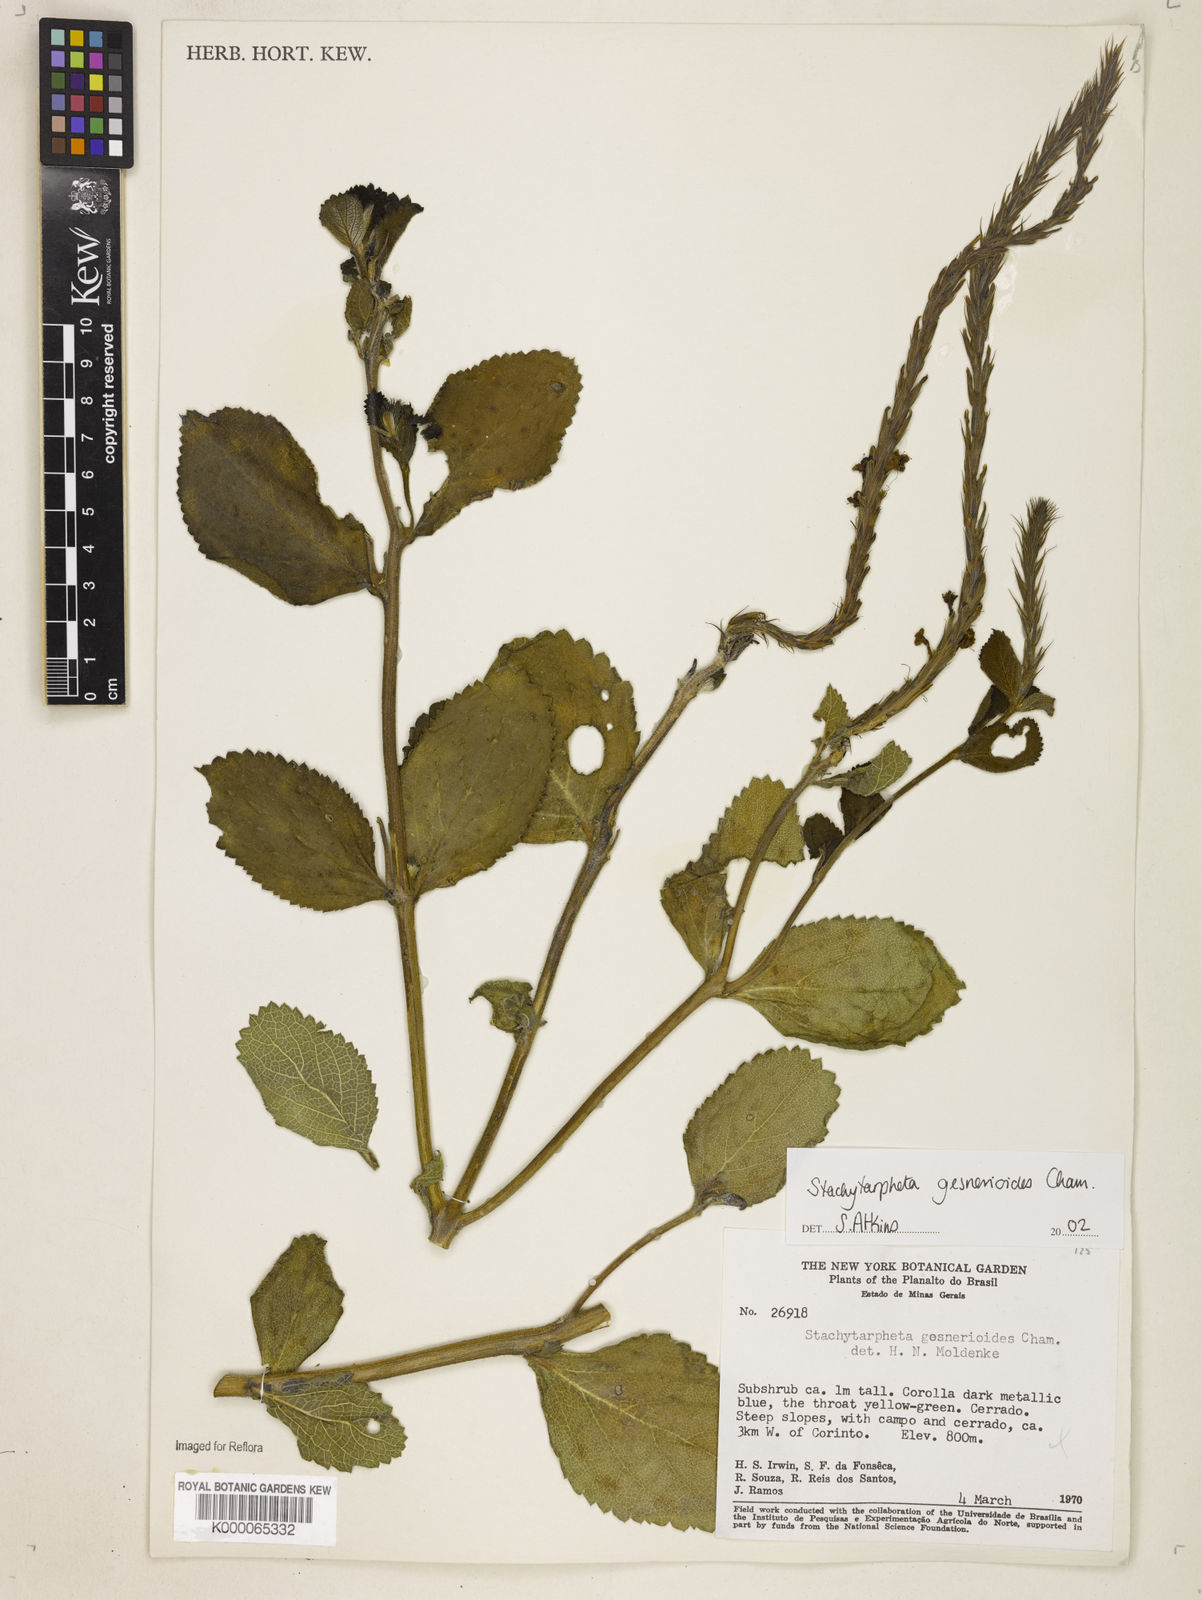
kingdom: Plantae
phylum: Tracheophyta
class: Magnoliopsida
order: Lamiales
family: Verbenaceae
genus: Stachytarpheta
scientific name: Stachytarpheta gesnerioides
